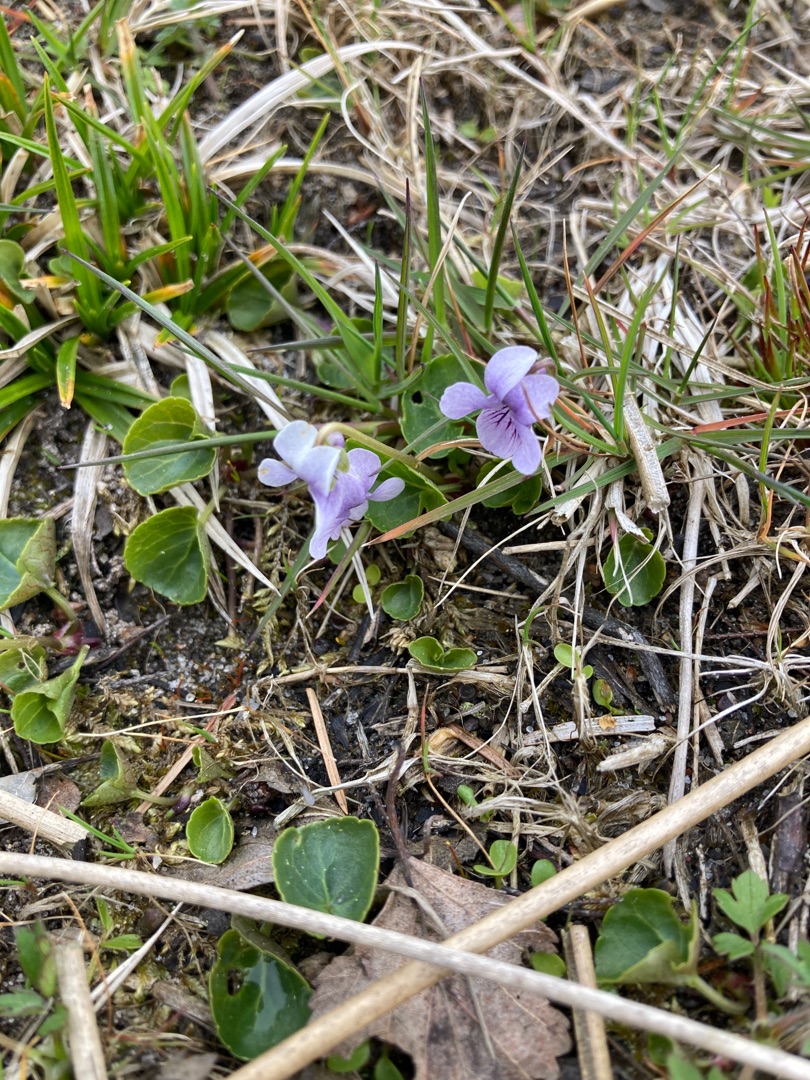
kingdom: Plantae
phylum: Tracheophyta
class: Magnoliopsida
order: Malpighiales
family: Violaceae
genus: Viola
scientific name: Viola palustris
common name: Eng-viol
